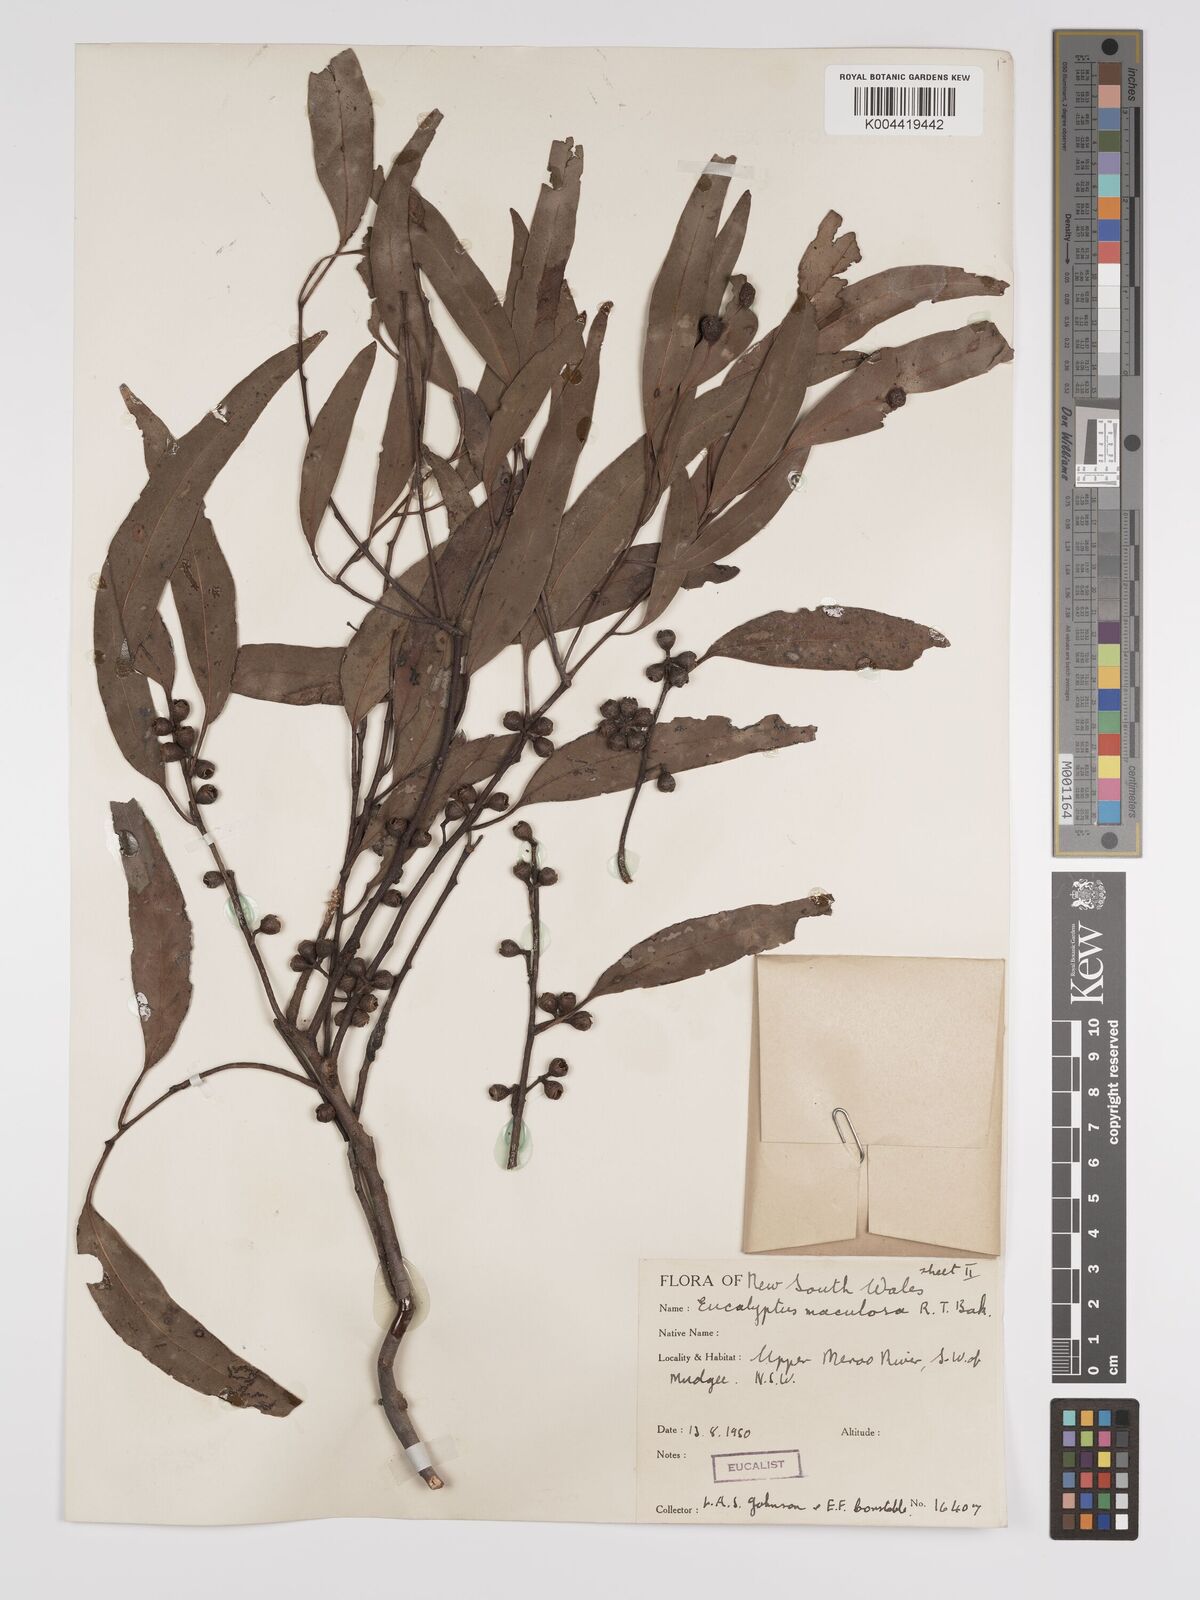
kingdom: Plantae
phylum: Tracheophyta
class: Magnoliopsida
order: Myrtales
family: Myrtaceae
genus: Eucalyptus
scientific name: Eucalyptus mannifera
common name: Manna gum
